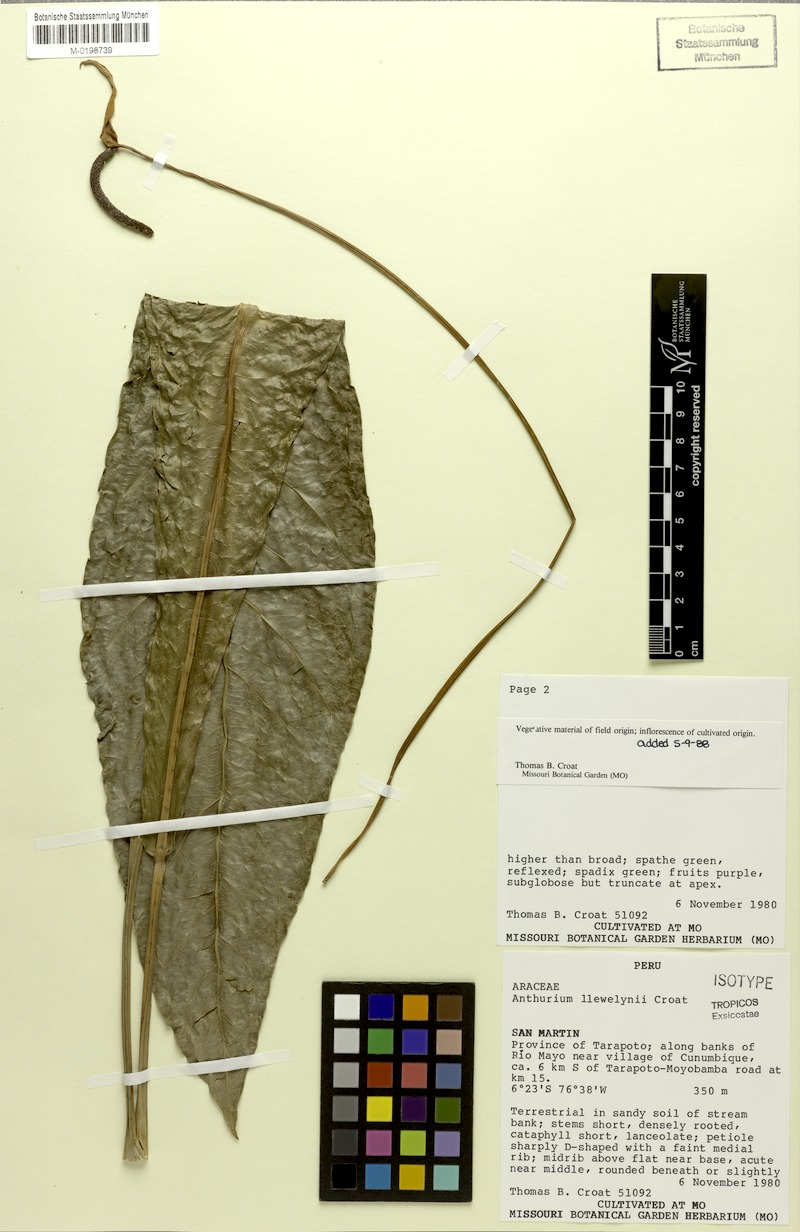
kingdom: Plantae
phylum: Tracheophyta
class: Liliopsida
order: Alismatales
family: Araceae
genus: Anthurium
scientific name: Anthurium llewellynii
